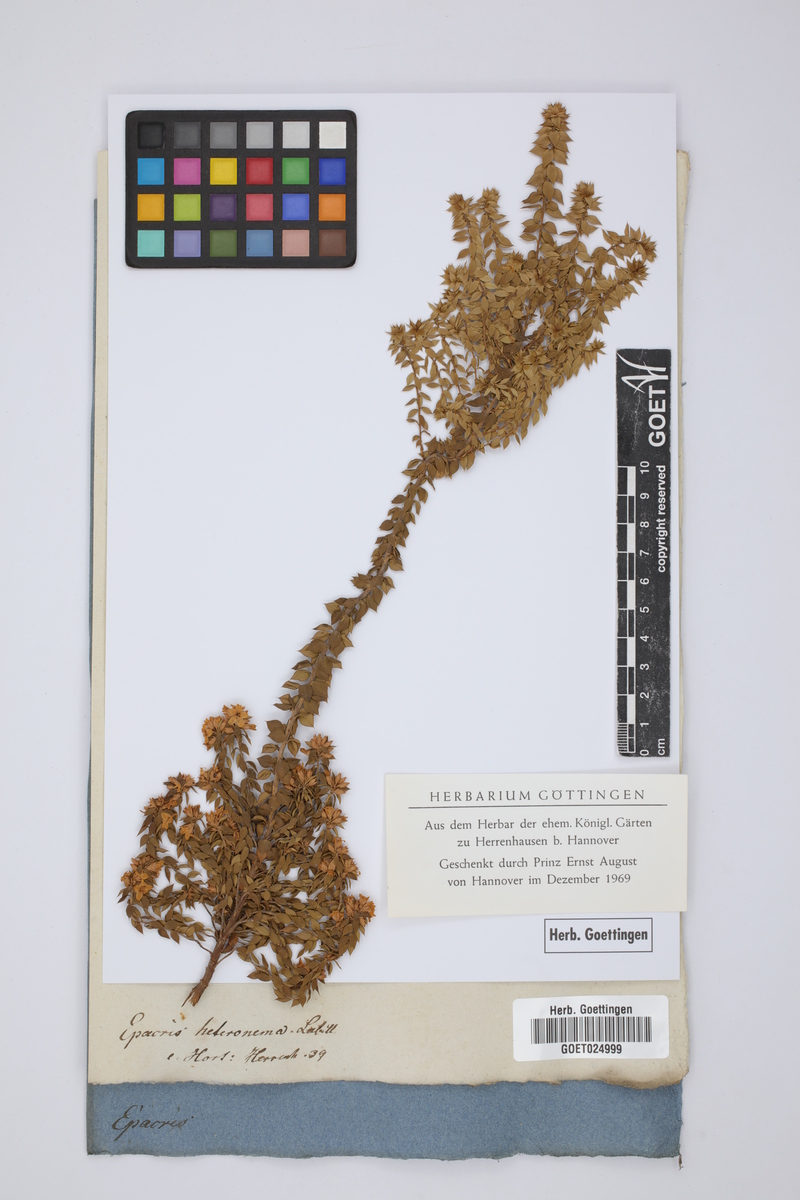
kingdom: Plantae
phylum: Tracheophyta
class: Magnoliopsida
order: Ericales
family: Ericaceae
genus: Epacris
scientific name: Epacris heteronema
